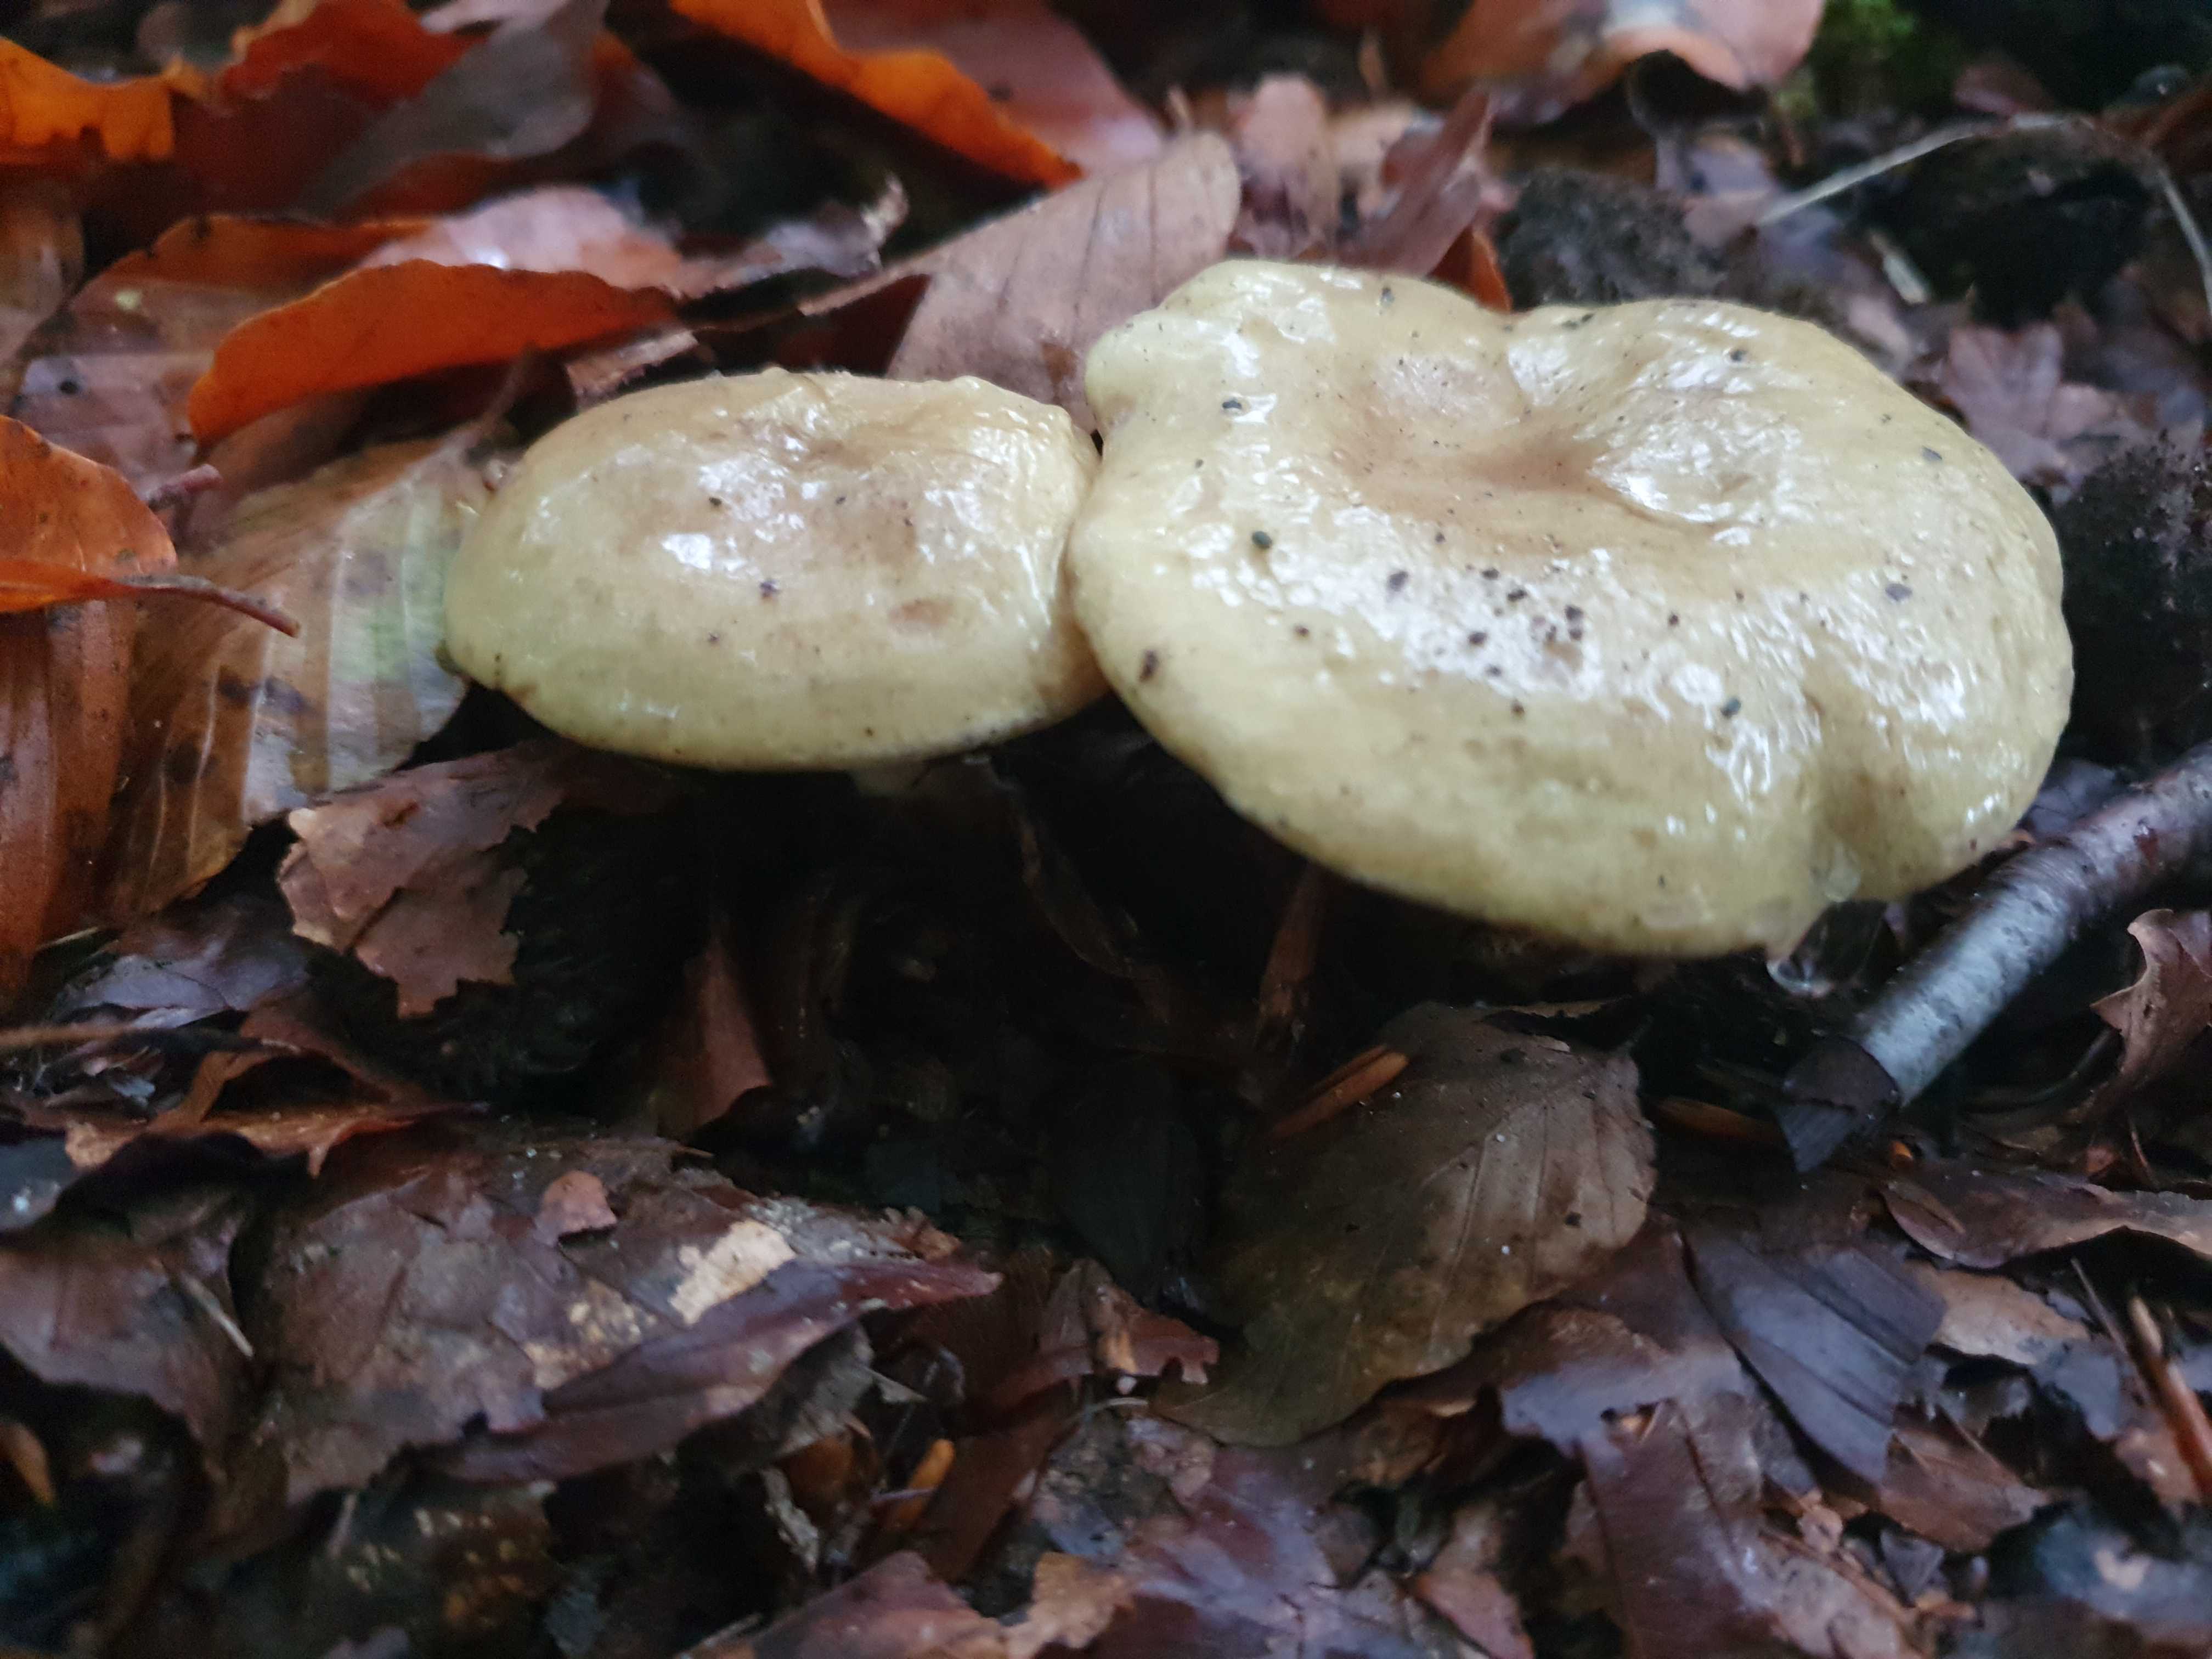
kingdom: Fungi
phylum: Basidiomycota
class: Agaricomycetes
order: Russulales
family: Russulaceae
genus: Lactarius
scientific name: Lactarius blennius
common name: dråbeplettet mælkehat
